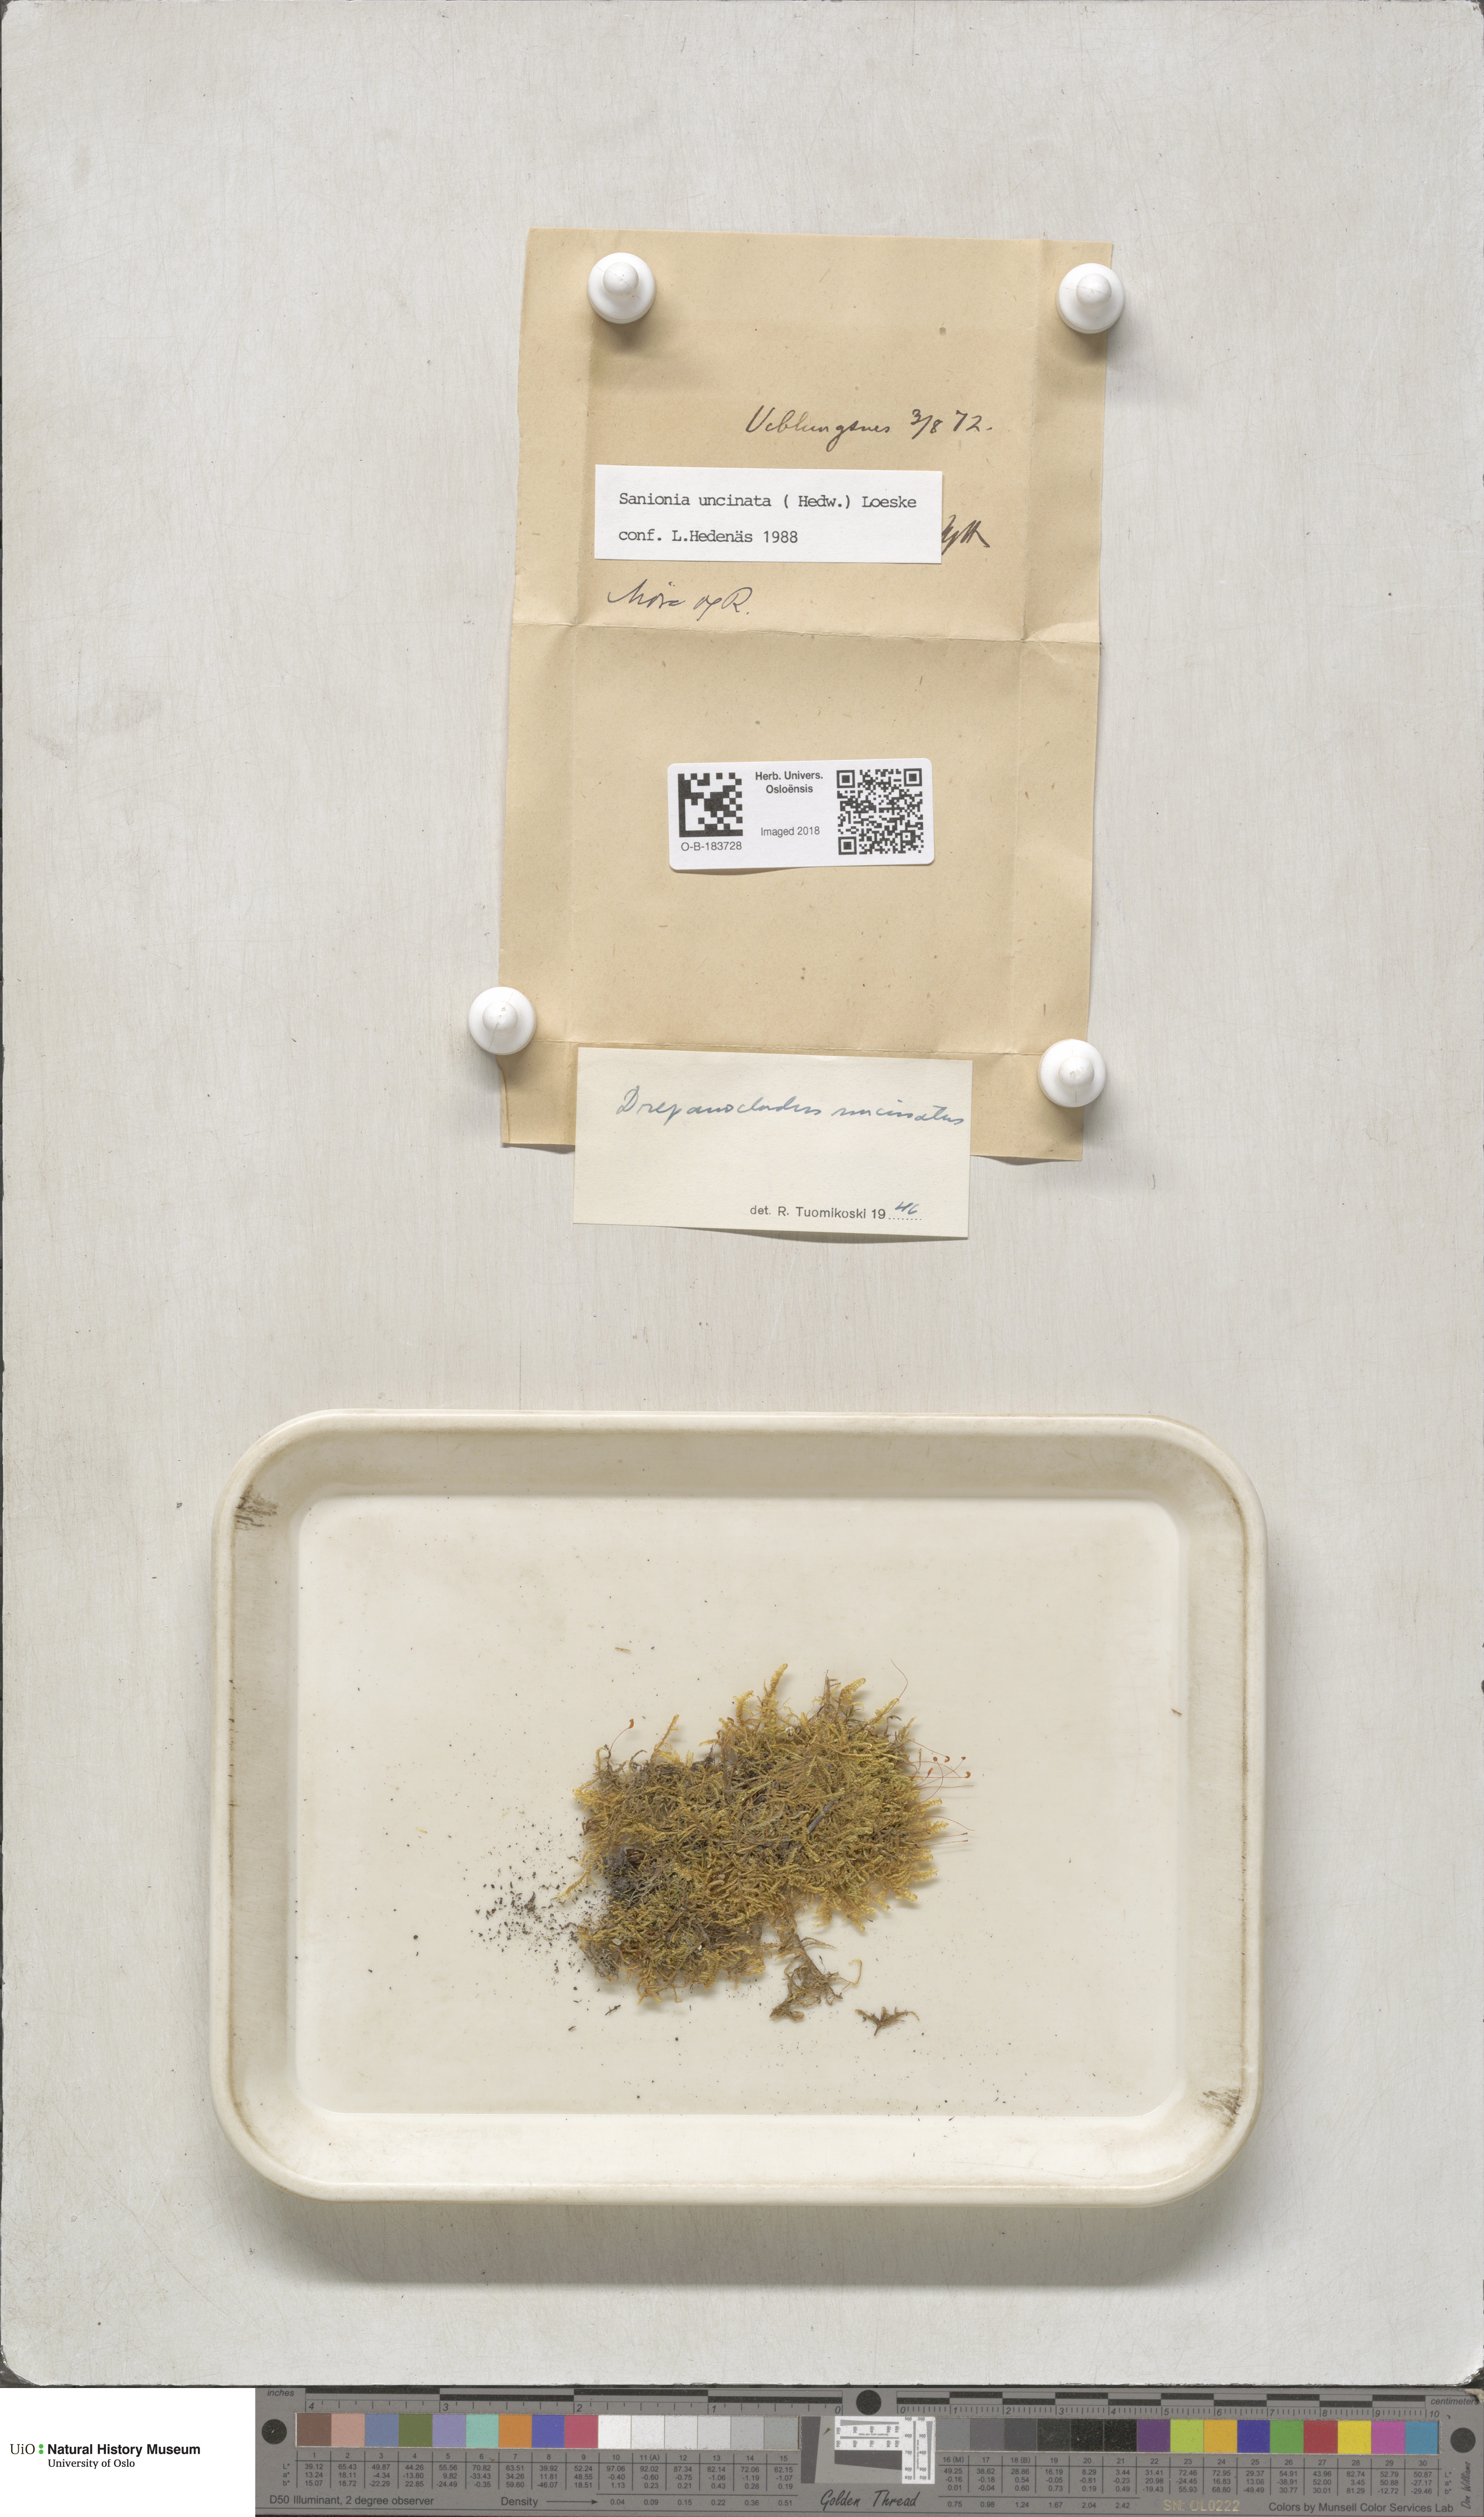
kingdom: Plantae
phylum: Bryophyta
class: Bryopsida
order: Hypnales
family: Scorpidiaceae
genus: Sanionia
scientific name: Sanionia uncinata
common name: Sickle moss
